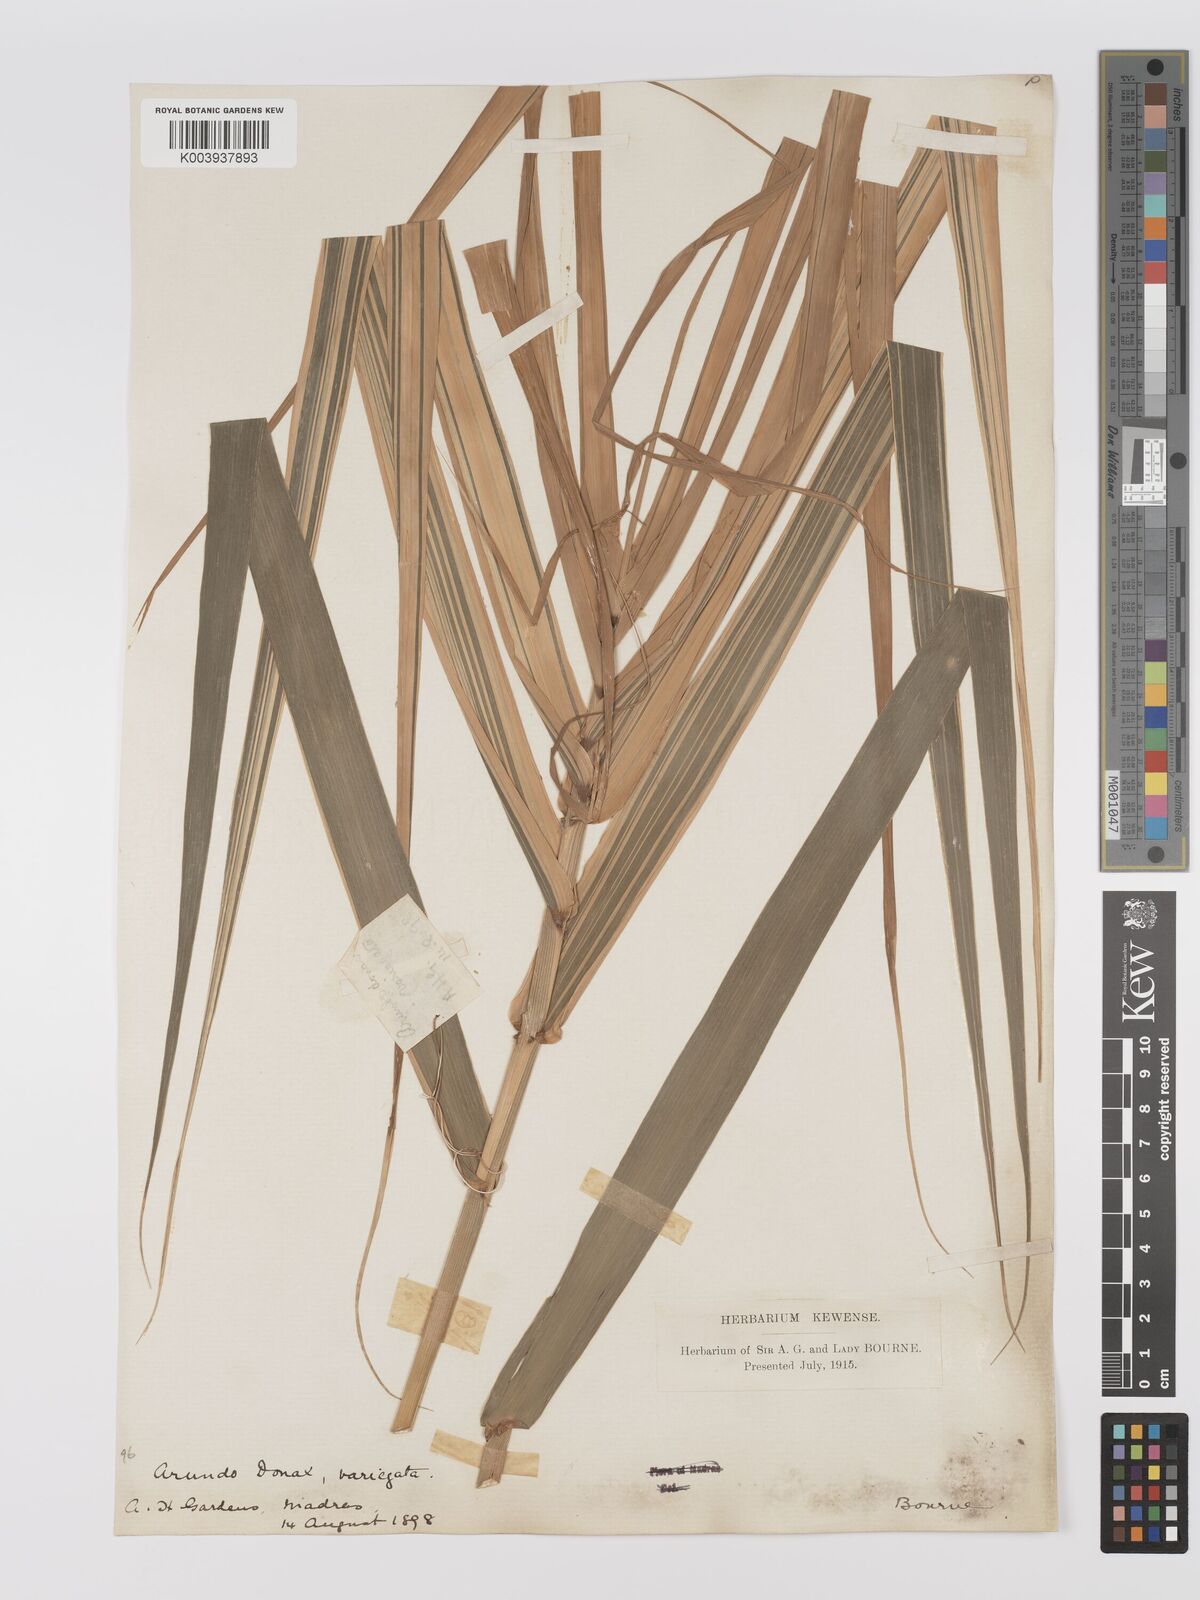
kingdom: Plantae
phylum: Tracheophyta
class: Liliopsida
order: Poales
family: Poaceae
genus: Arundo
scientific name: Arundo
